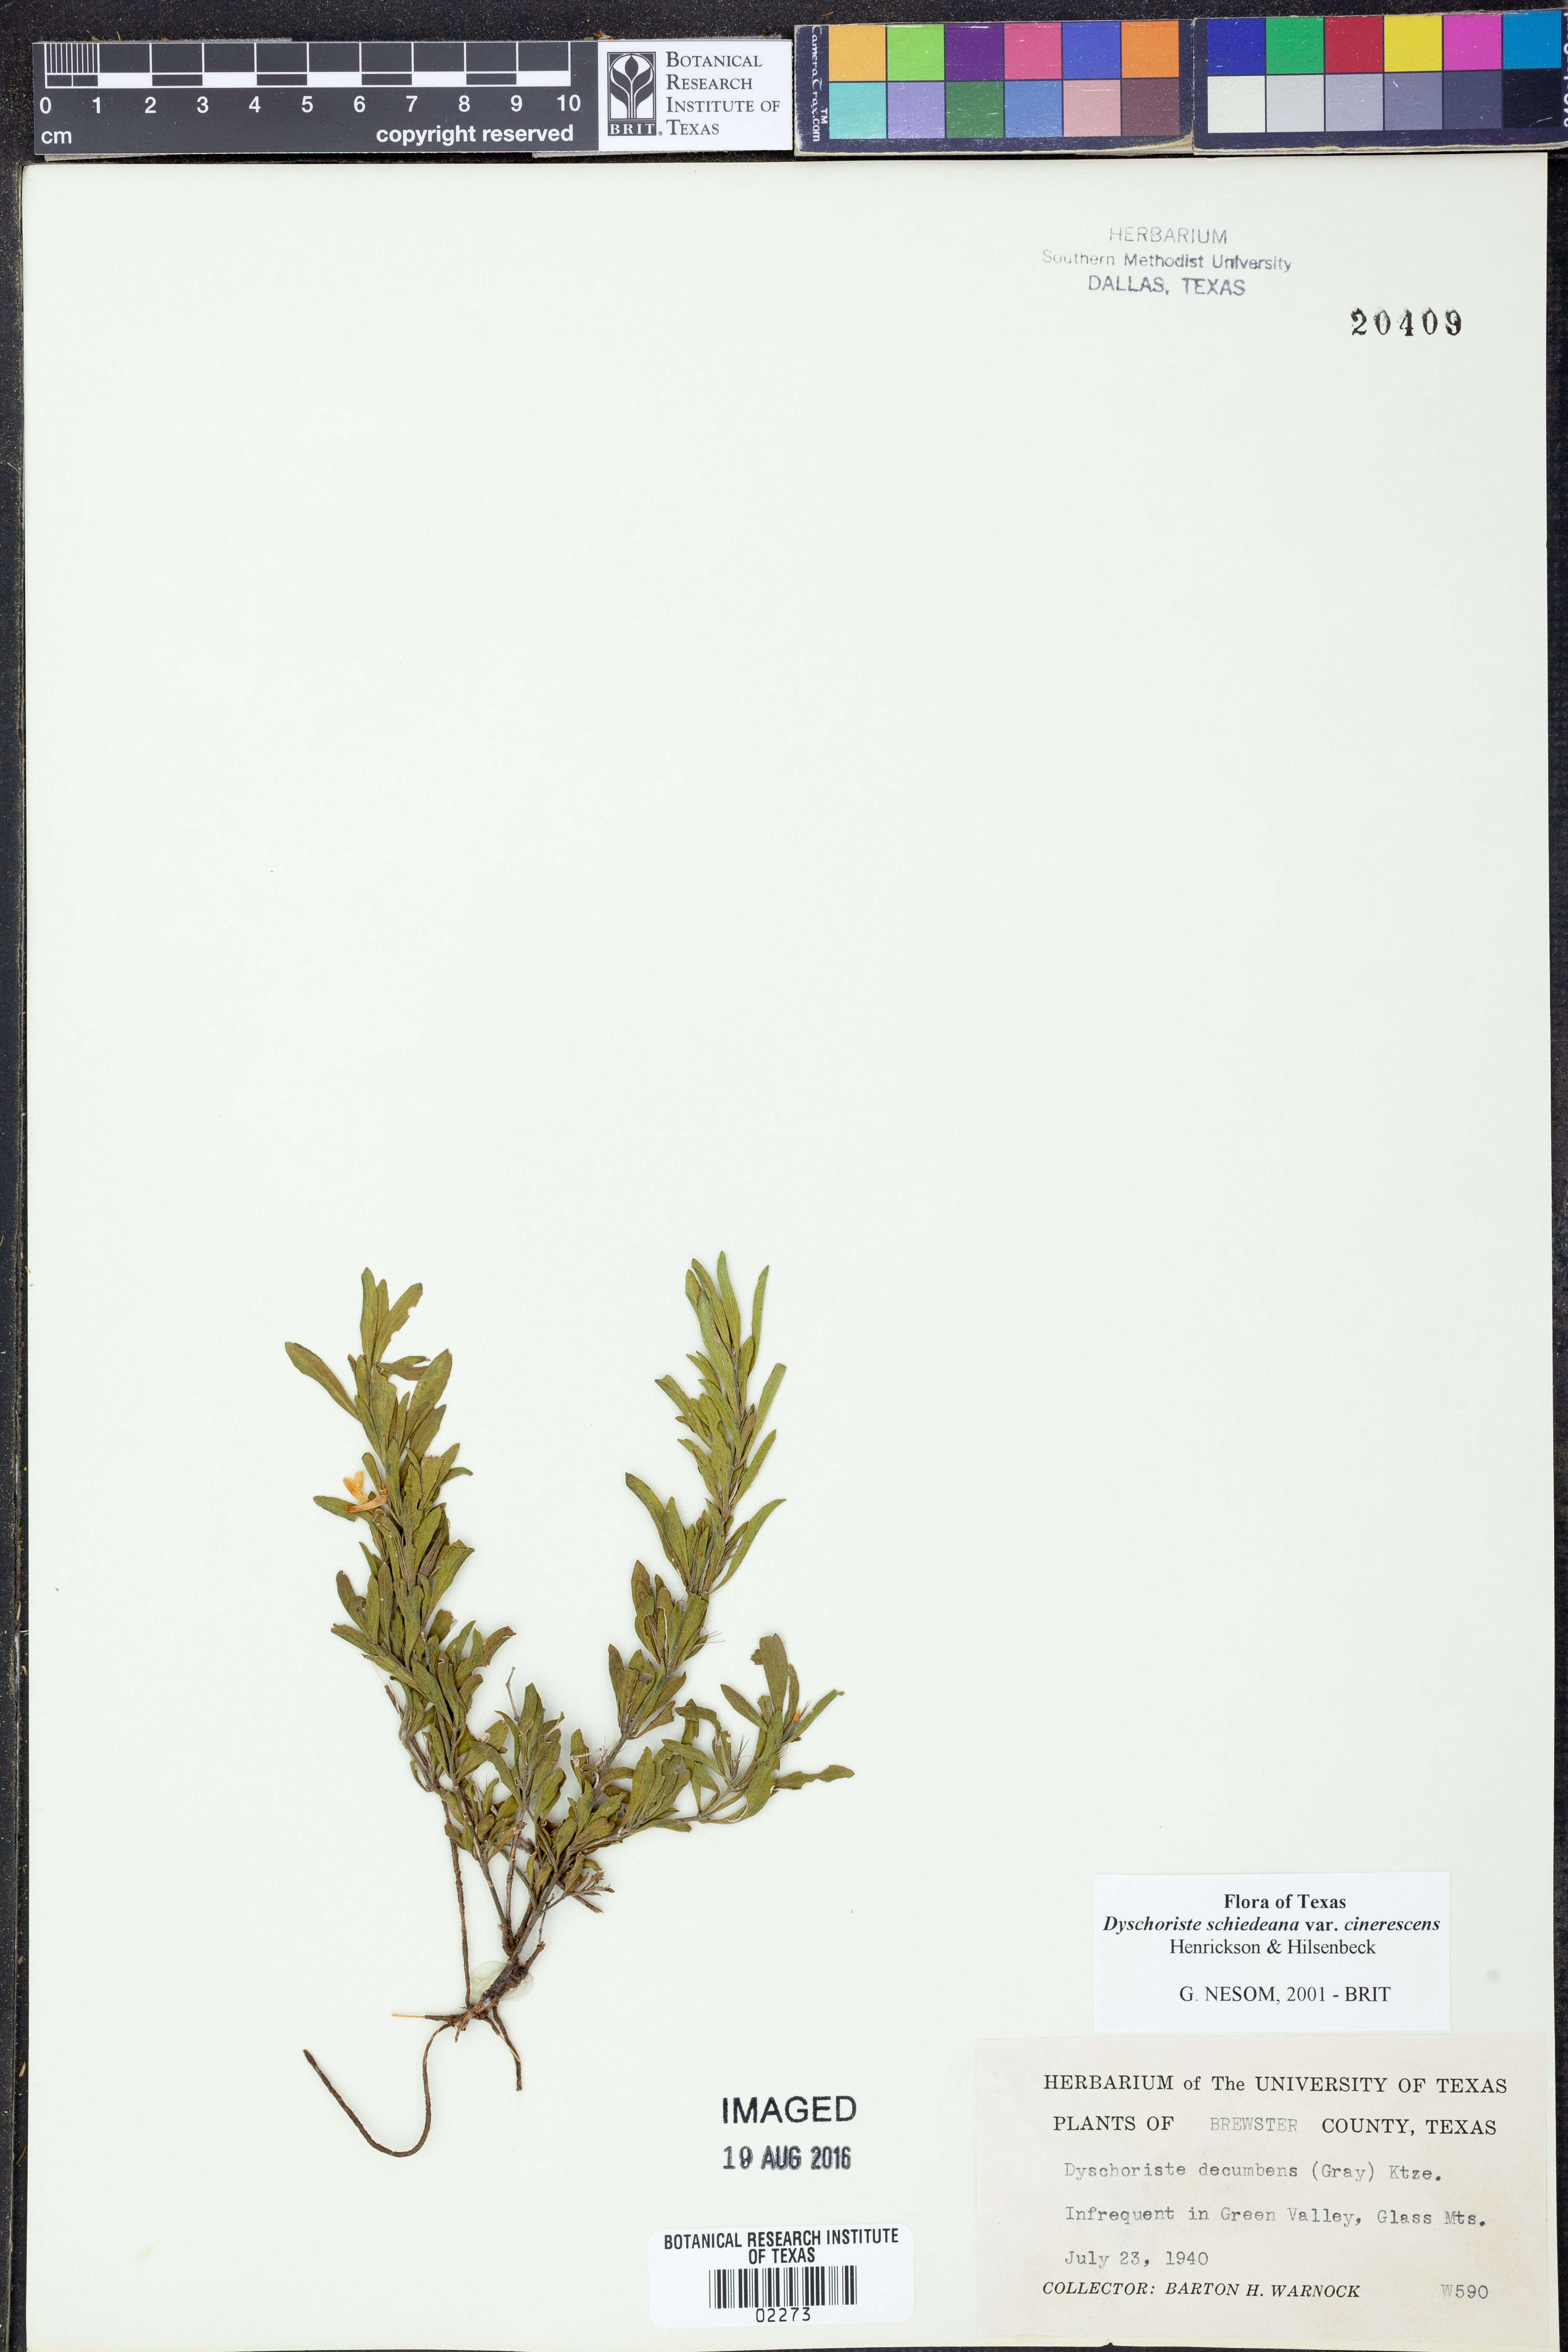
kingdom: Plantae
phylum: Tracheophyta
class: Magnoliopsida
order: Lamiales
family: Acanthaceae
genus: Dyschoriste
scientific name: Dyschoriste cinerascens
